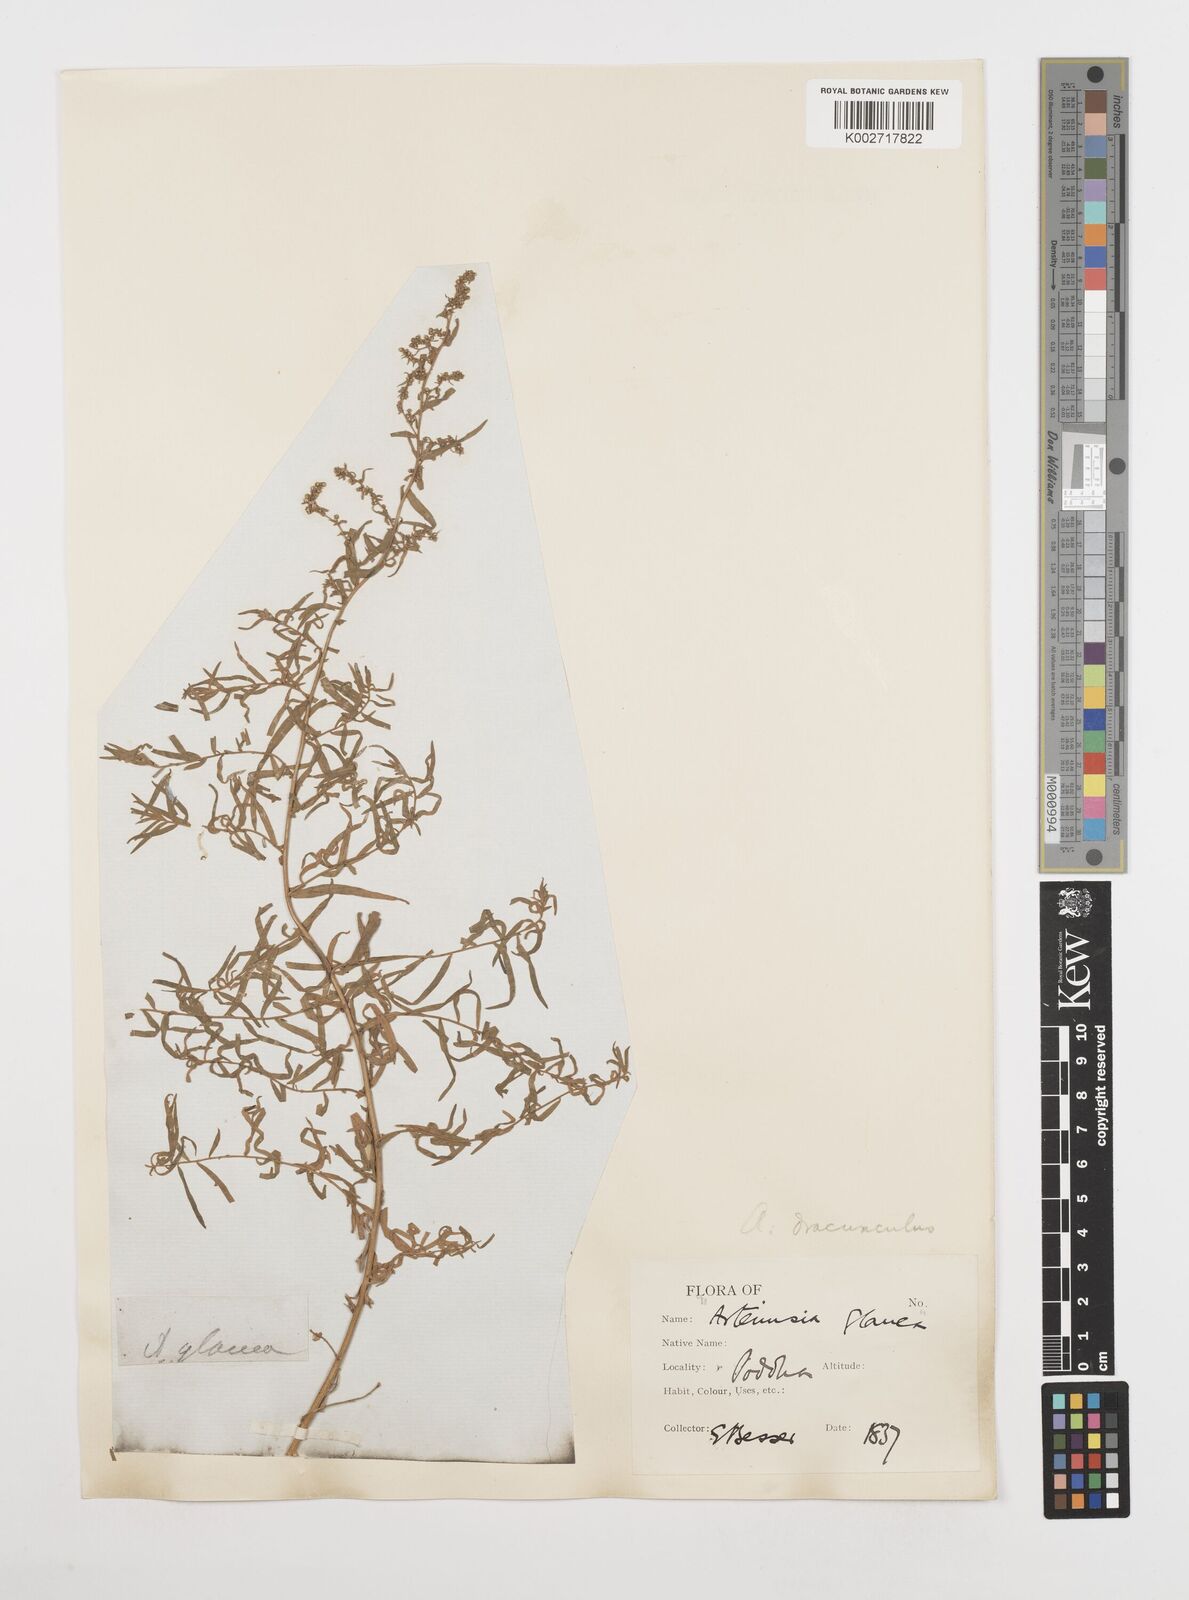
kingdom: Plantae
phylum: Tracheophyta
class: Magnoliopsida
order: Asterales
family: Asteraceae
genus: Artemisia
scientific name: Artemisia dracunculus
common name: Tarragon
